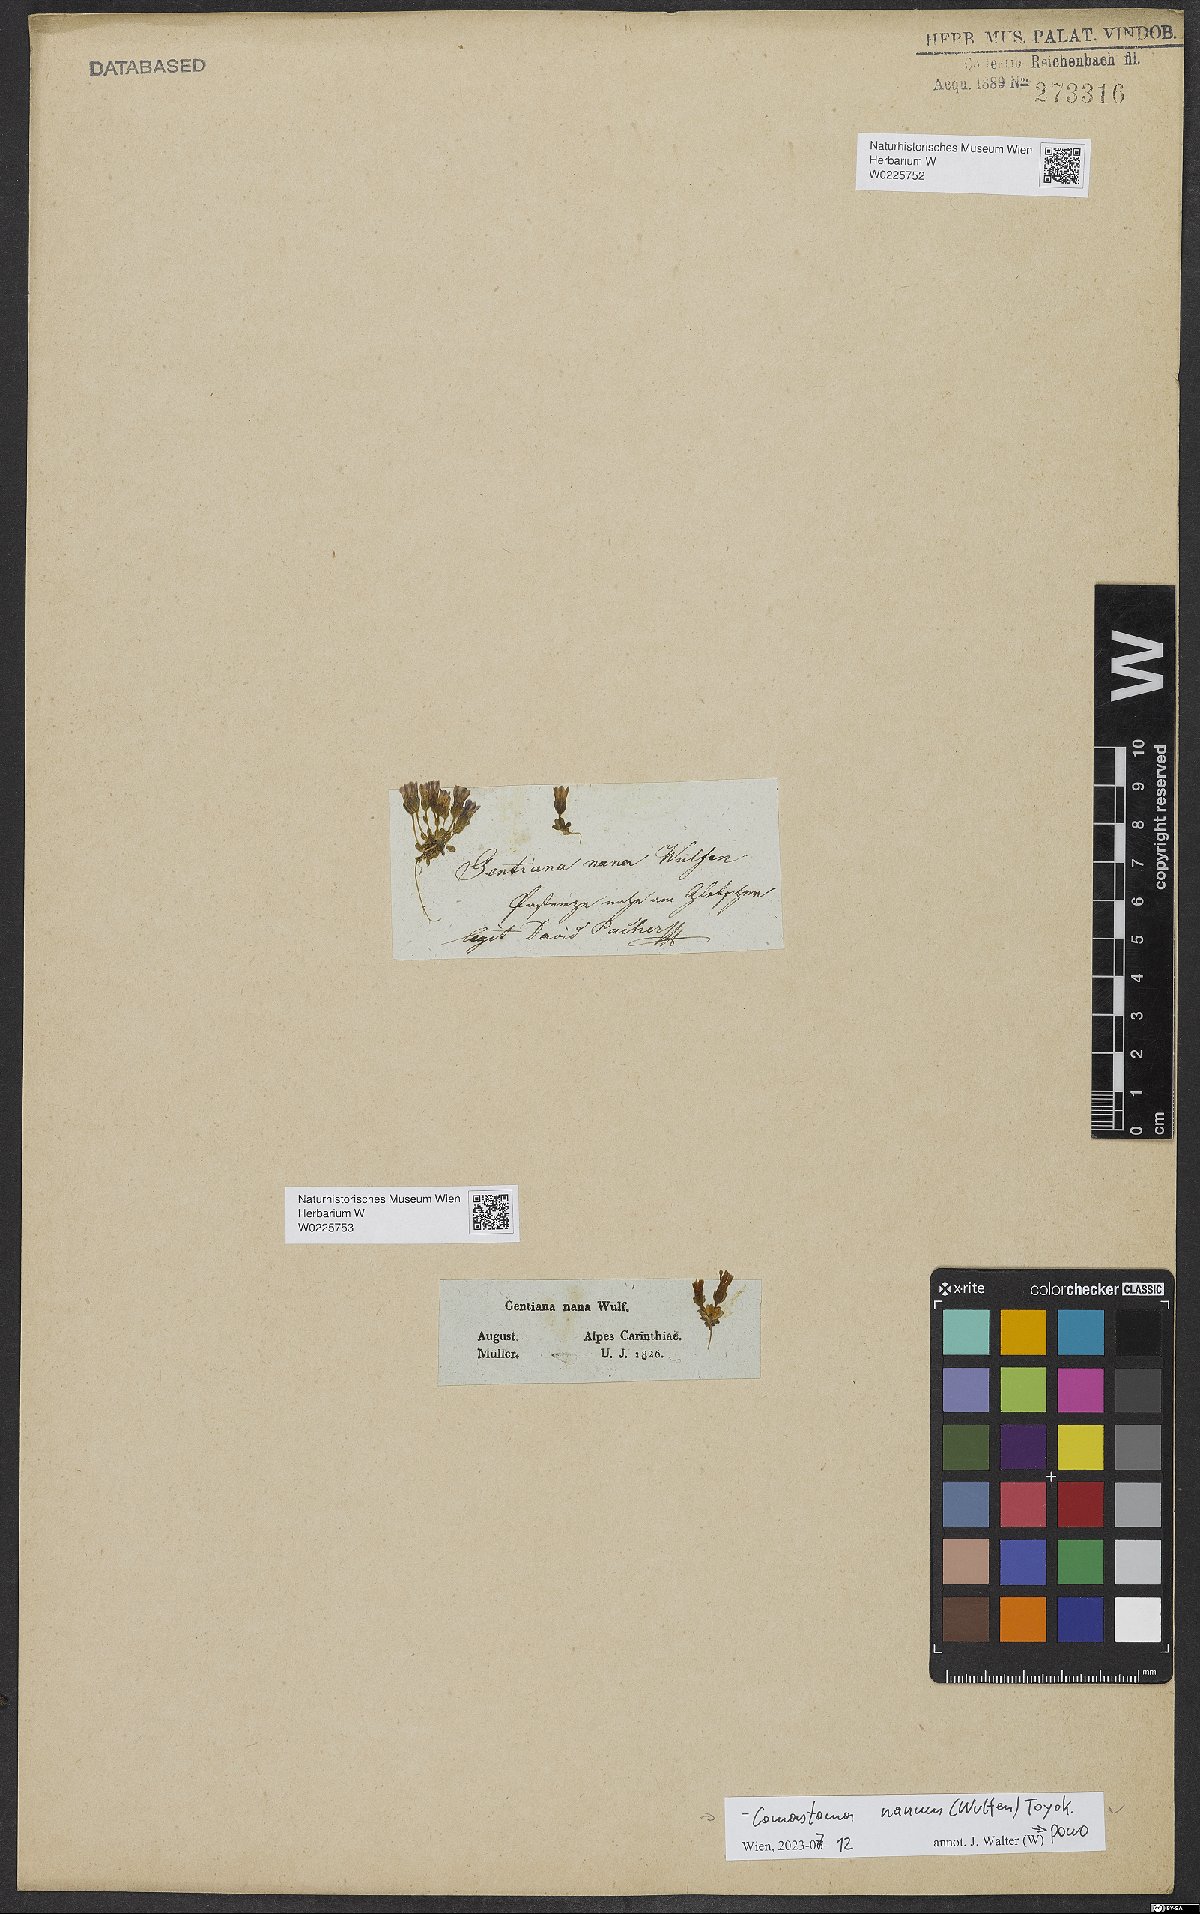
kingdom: Plantae
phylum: Tracheophyta
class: Magnoliopsida
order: Gentianales
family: Gentianaceae
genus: Comastoma
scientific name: Comastoma nanum
